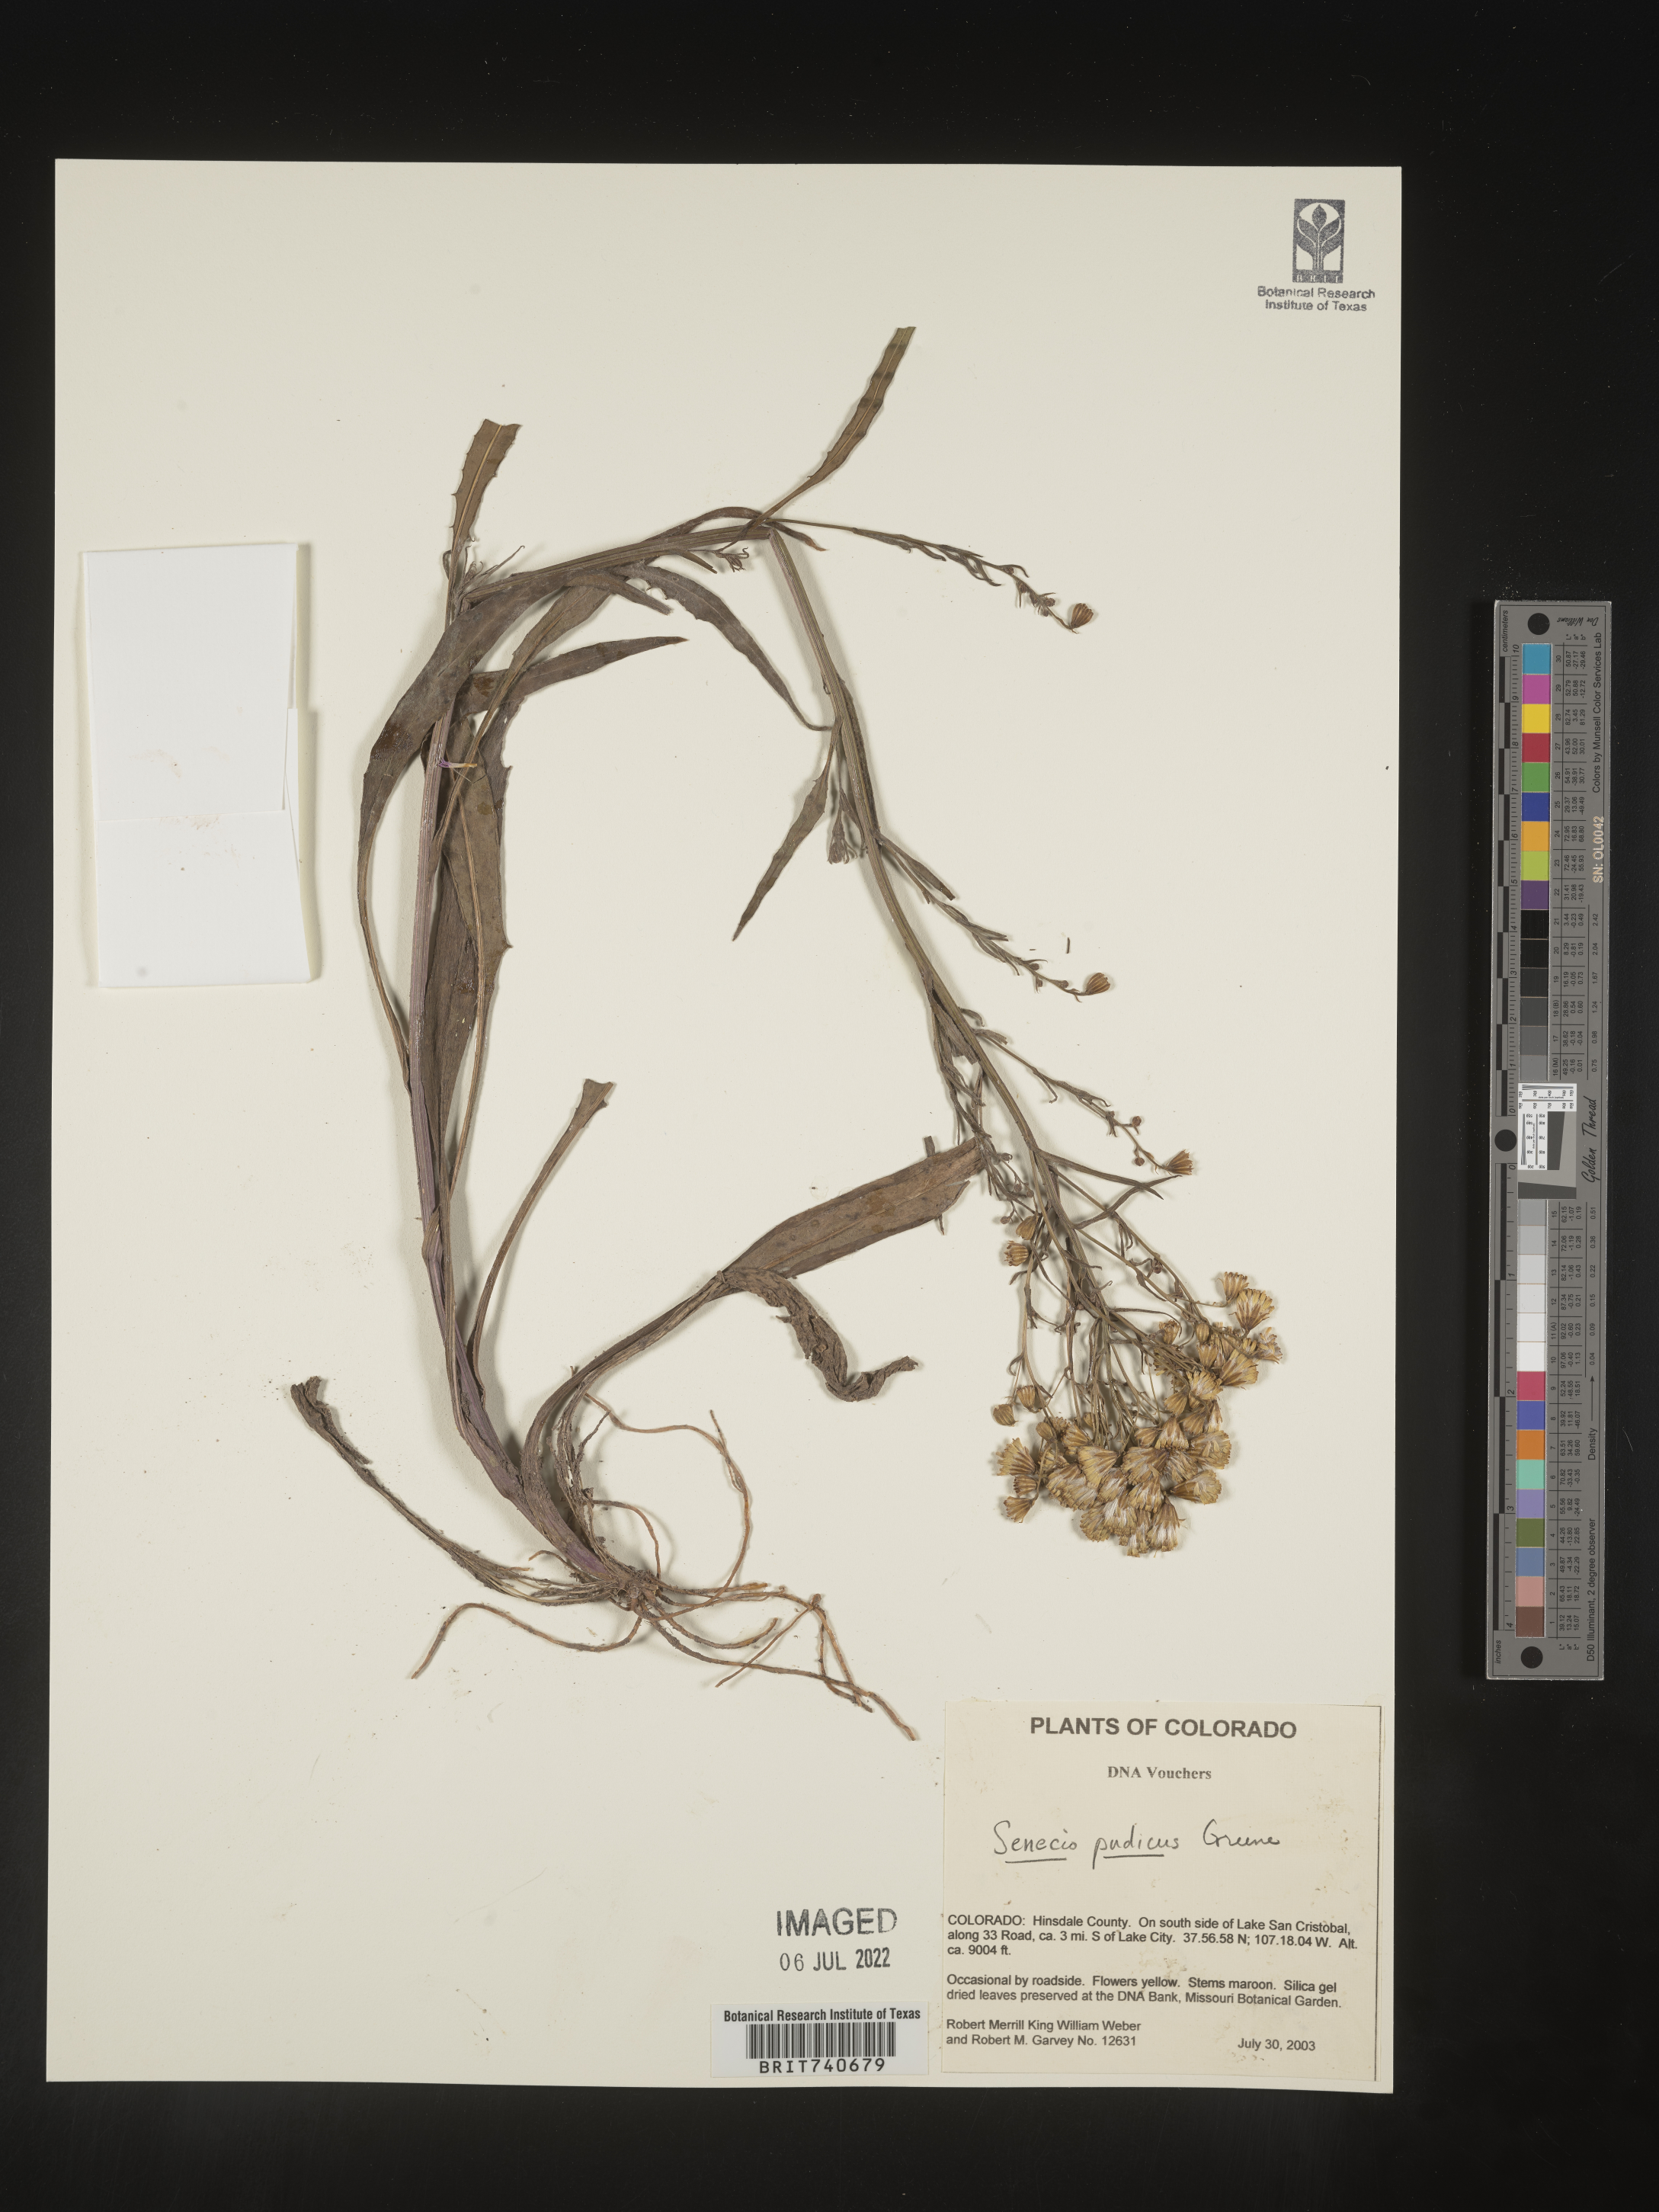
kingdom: Plantae
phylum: Tracheophyta
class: Magnoliopsida
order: Asterales
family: Asteraceae
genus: Senecio
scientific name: Senecio pudicus
